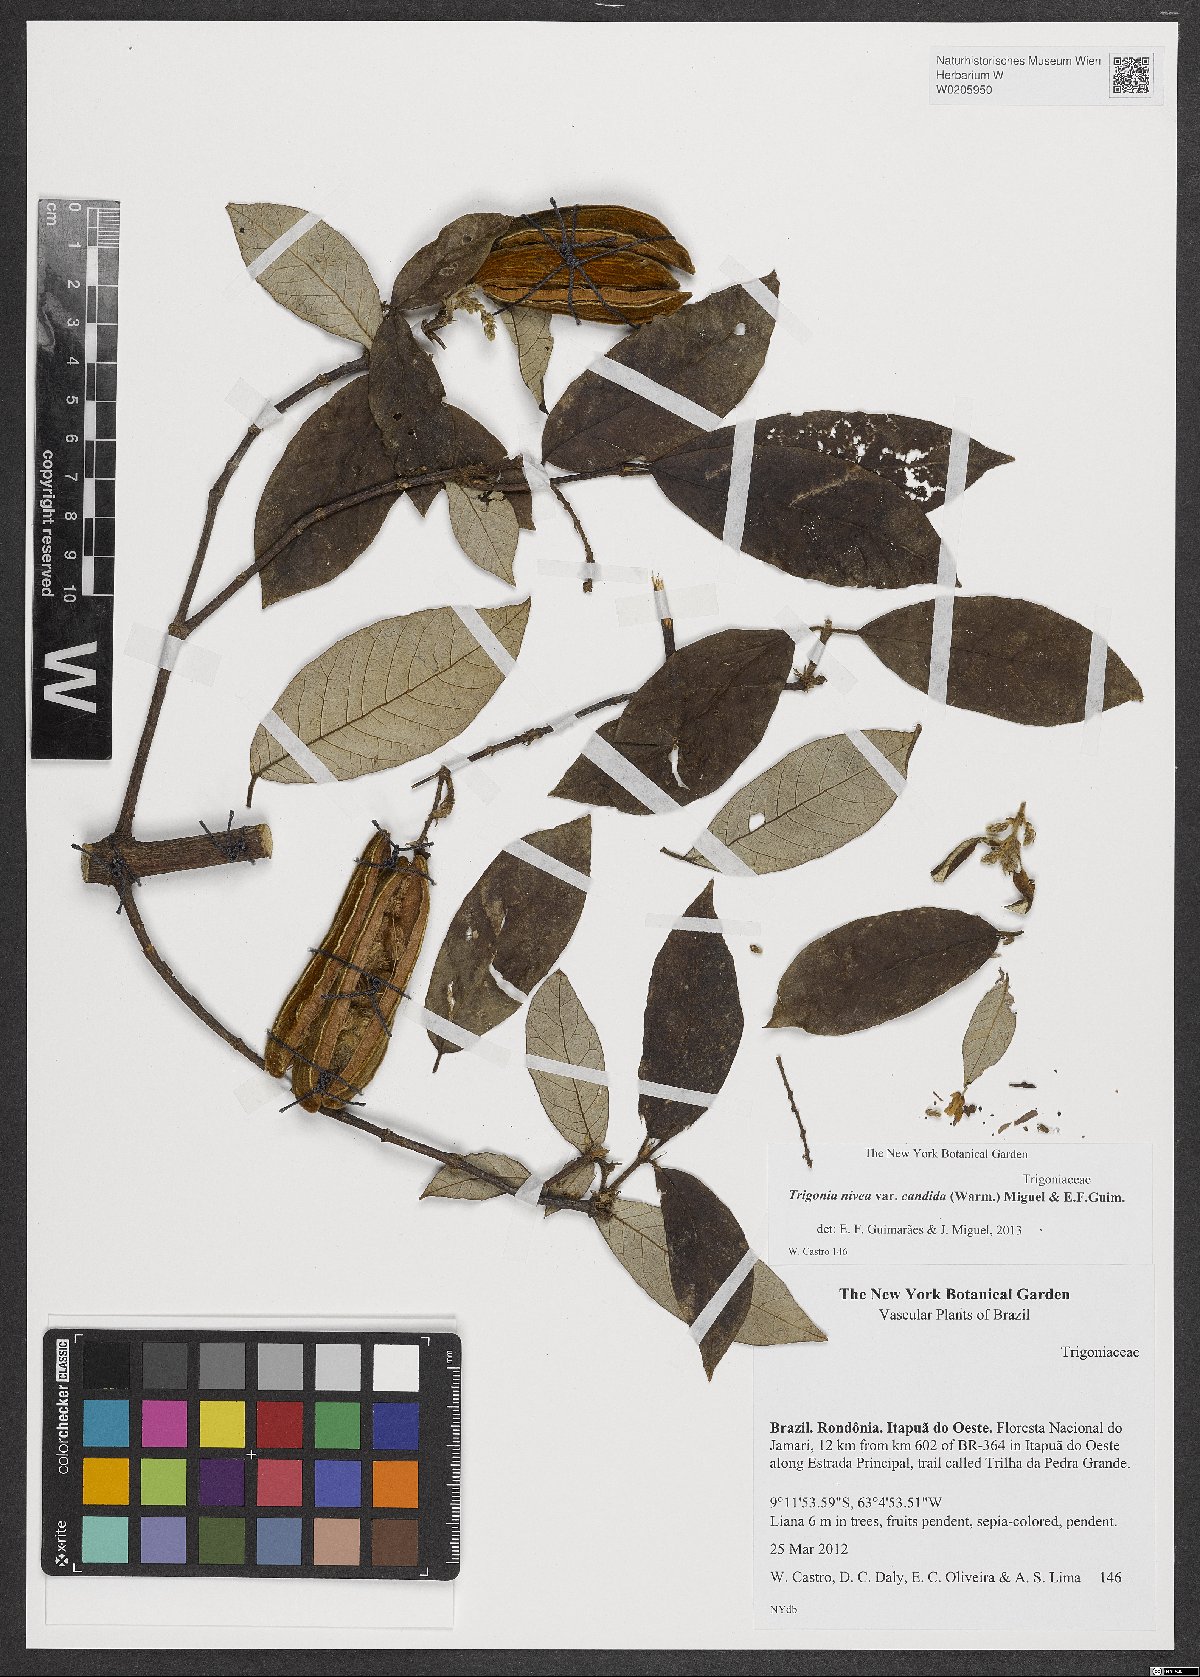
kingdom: Plantae
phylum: Tracheophyta
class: Magnoliopsida
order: Malpighiales
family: Trigoniaceae
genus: Trigonia
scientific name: Trigonia nivea
